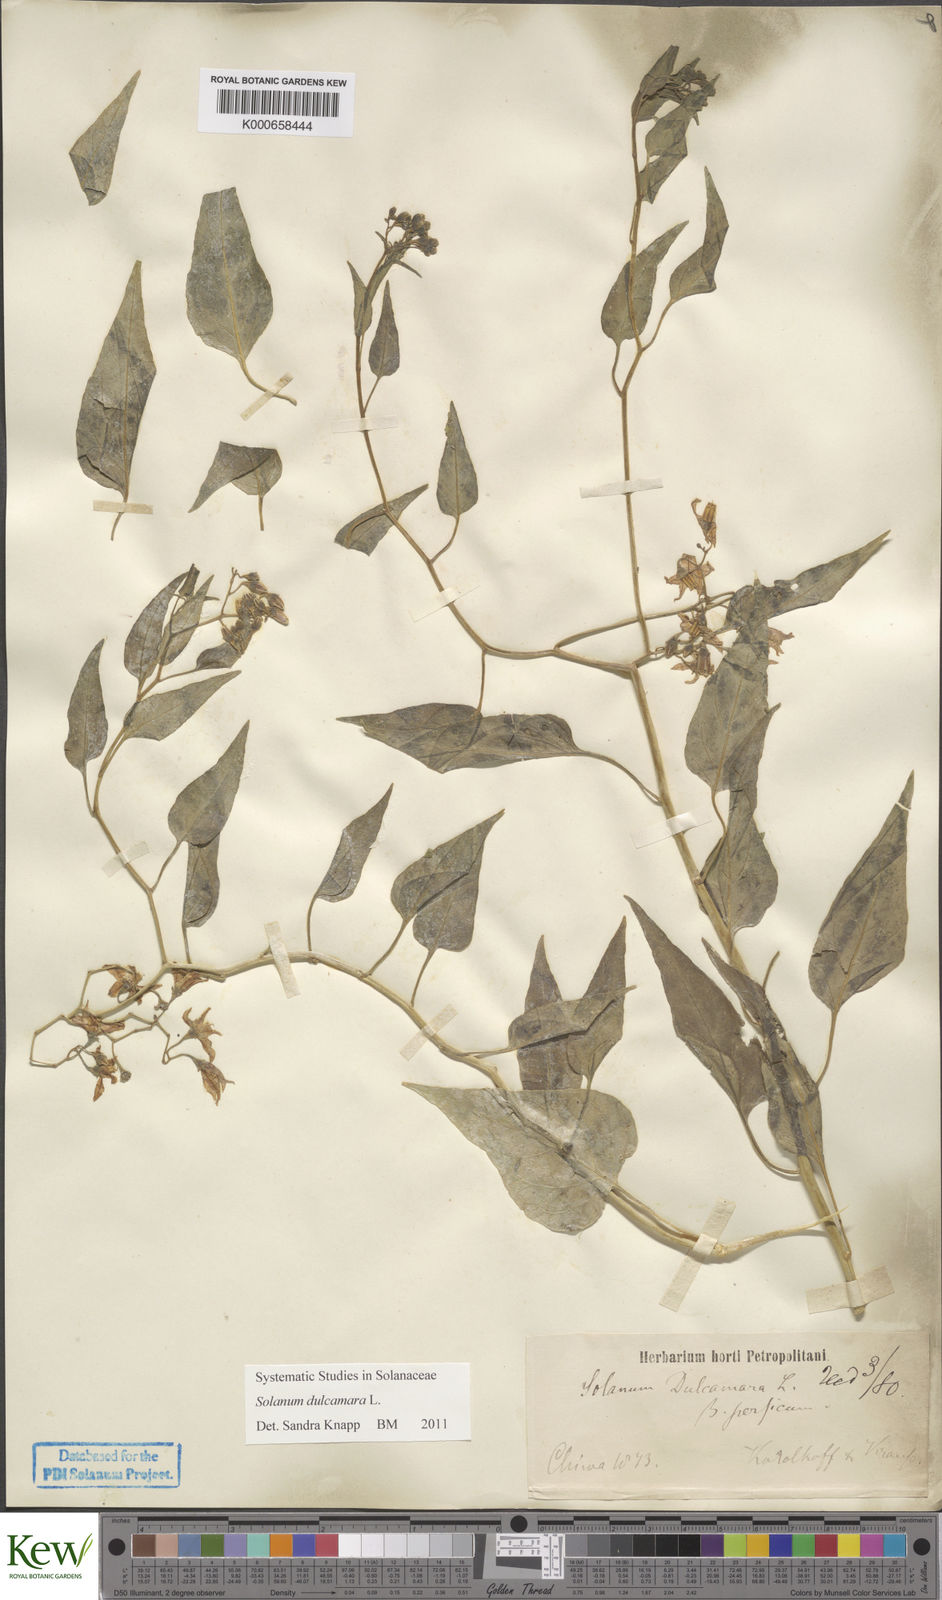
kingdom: Plantae
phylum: Tracheophyta
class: Magnoliopsida
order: Solanales
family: Solanaceae
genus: Solanum
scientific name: Solanum dulcamara
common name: Climbing nightshade
